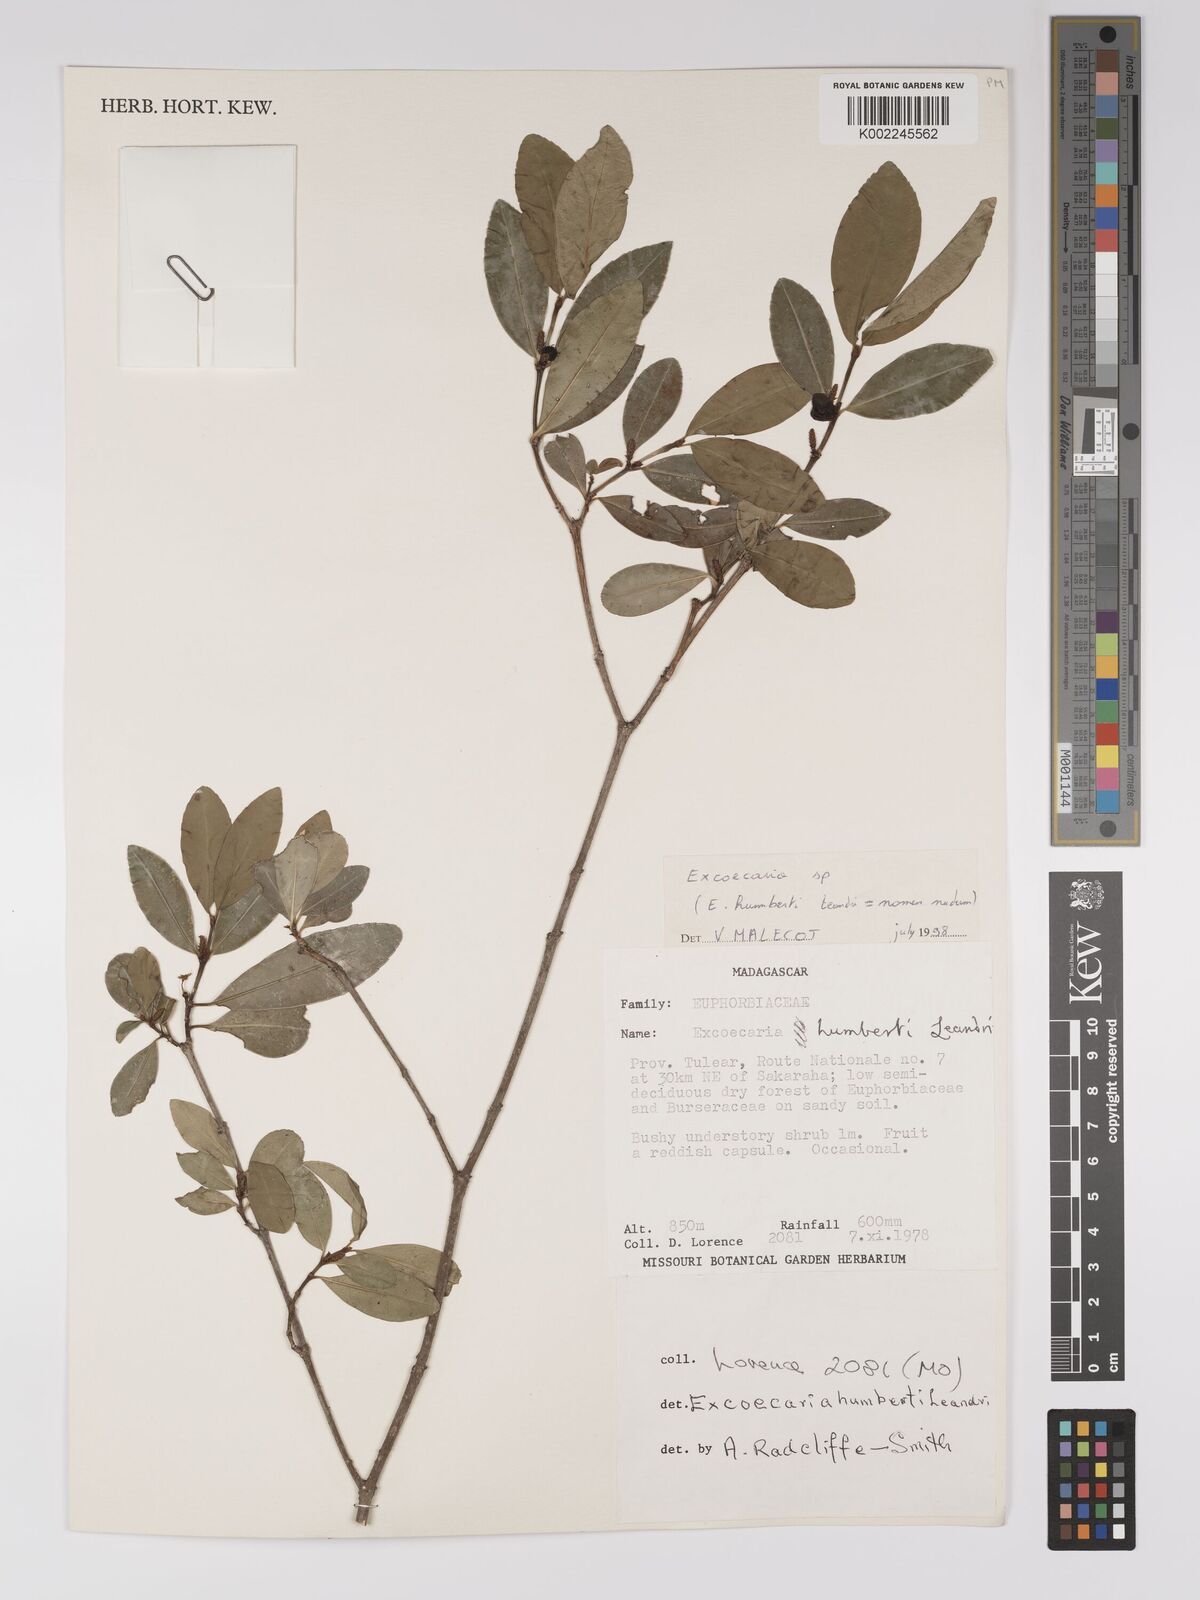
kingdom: Plantae
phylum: Tracheophyta
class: Magnoliopsida
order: Malpighiales
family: Euphorbiaceae
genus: Excoecaria
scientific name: Excoecaria
